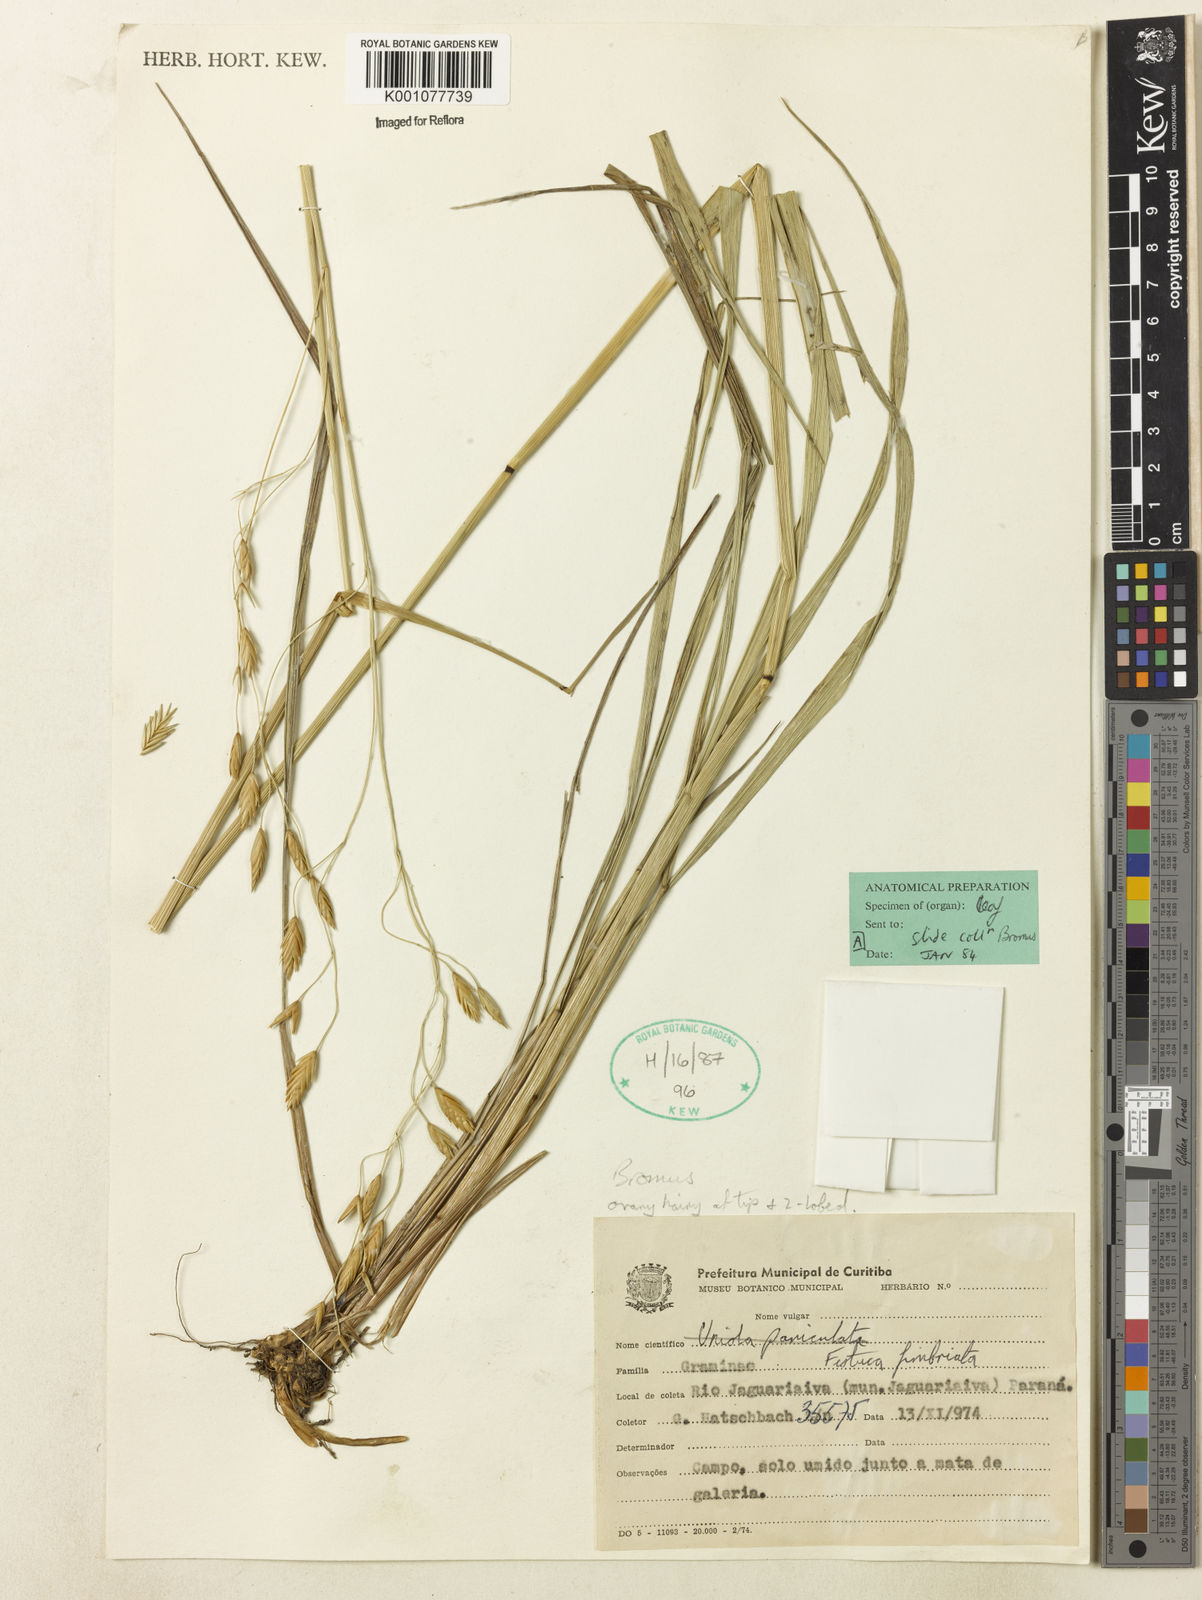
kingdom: Plantae
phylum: Tracheophyta
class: Liliopsida
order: Poales
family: Poaceae
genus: Festuca
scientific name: Festuca fimbriata
